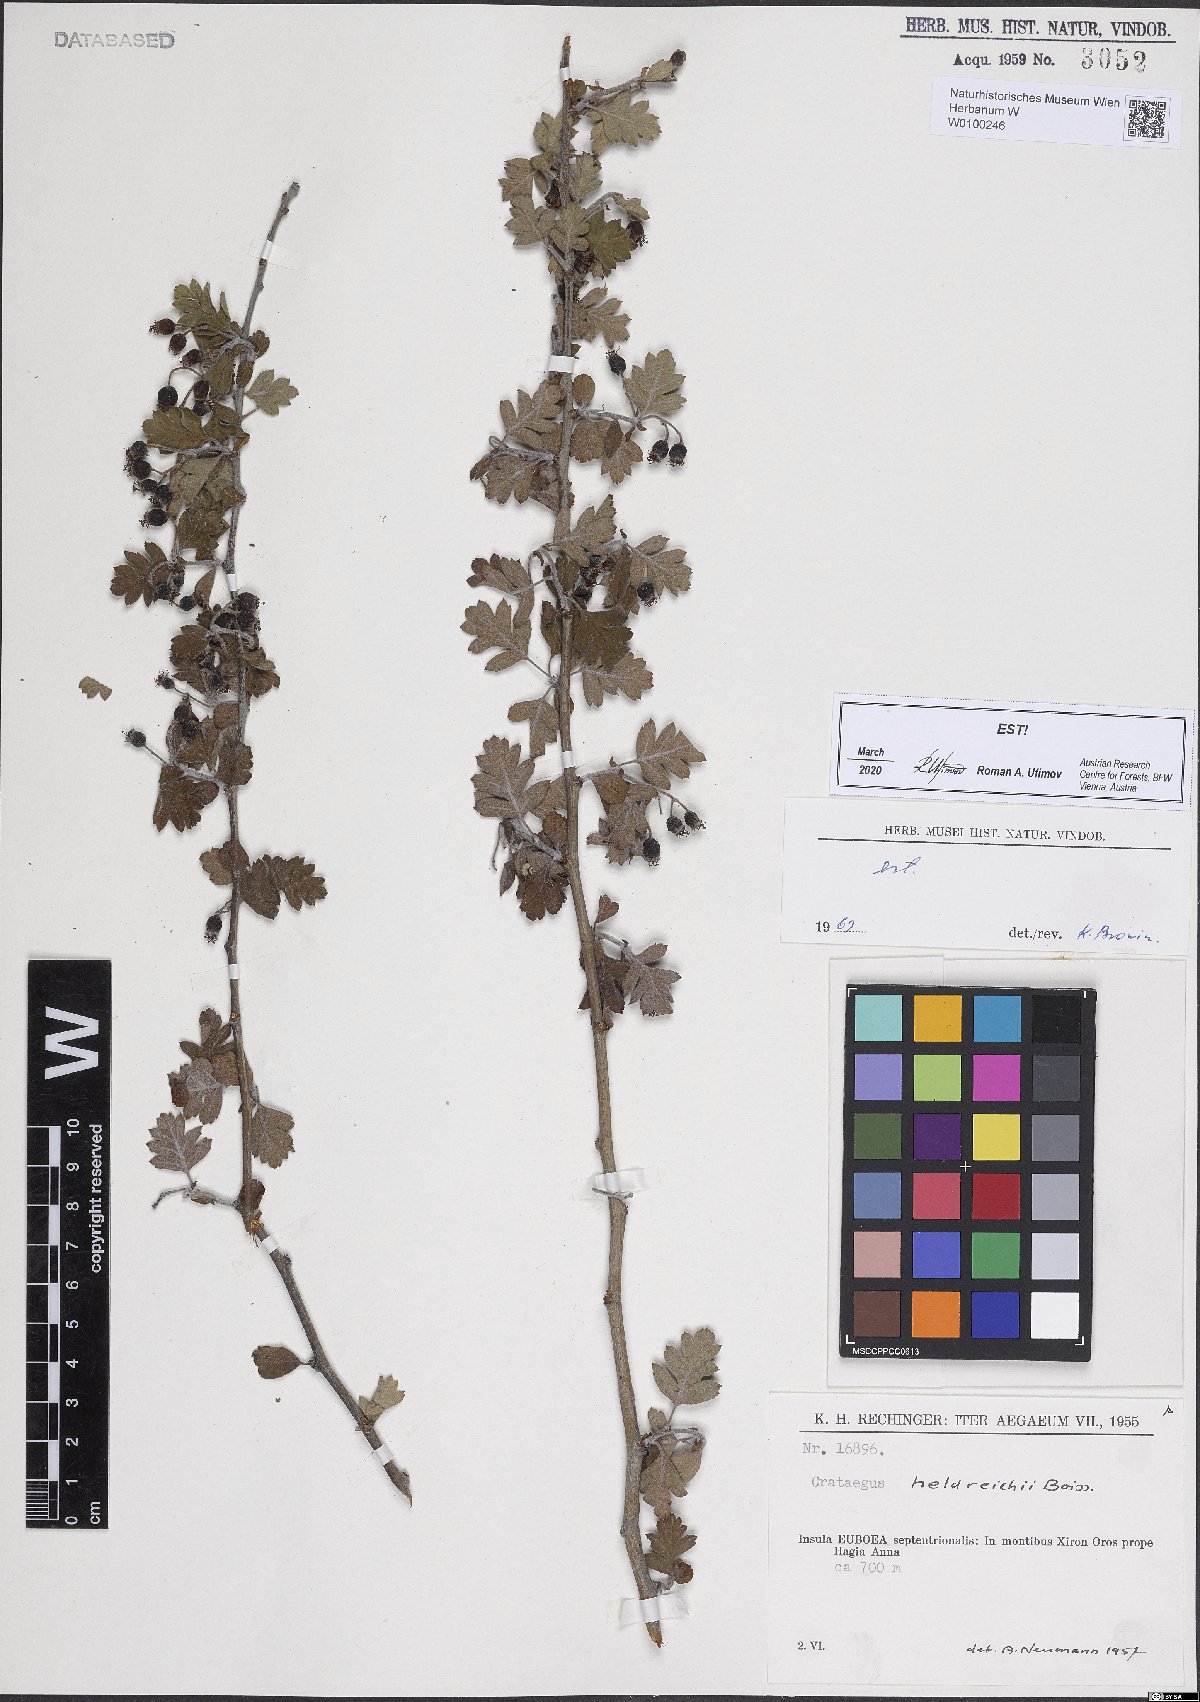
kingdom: Plantae
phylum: Tracheophyta
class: Magnoliopsida
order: Rosales
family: Rosaceae
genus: Crataegus
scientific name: Crataegus heldreichii
